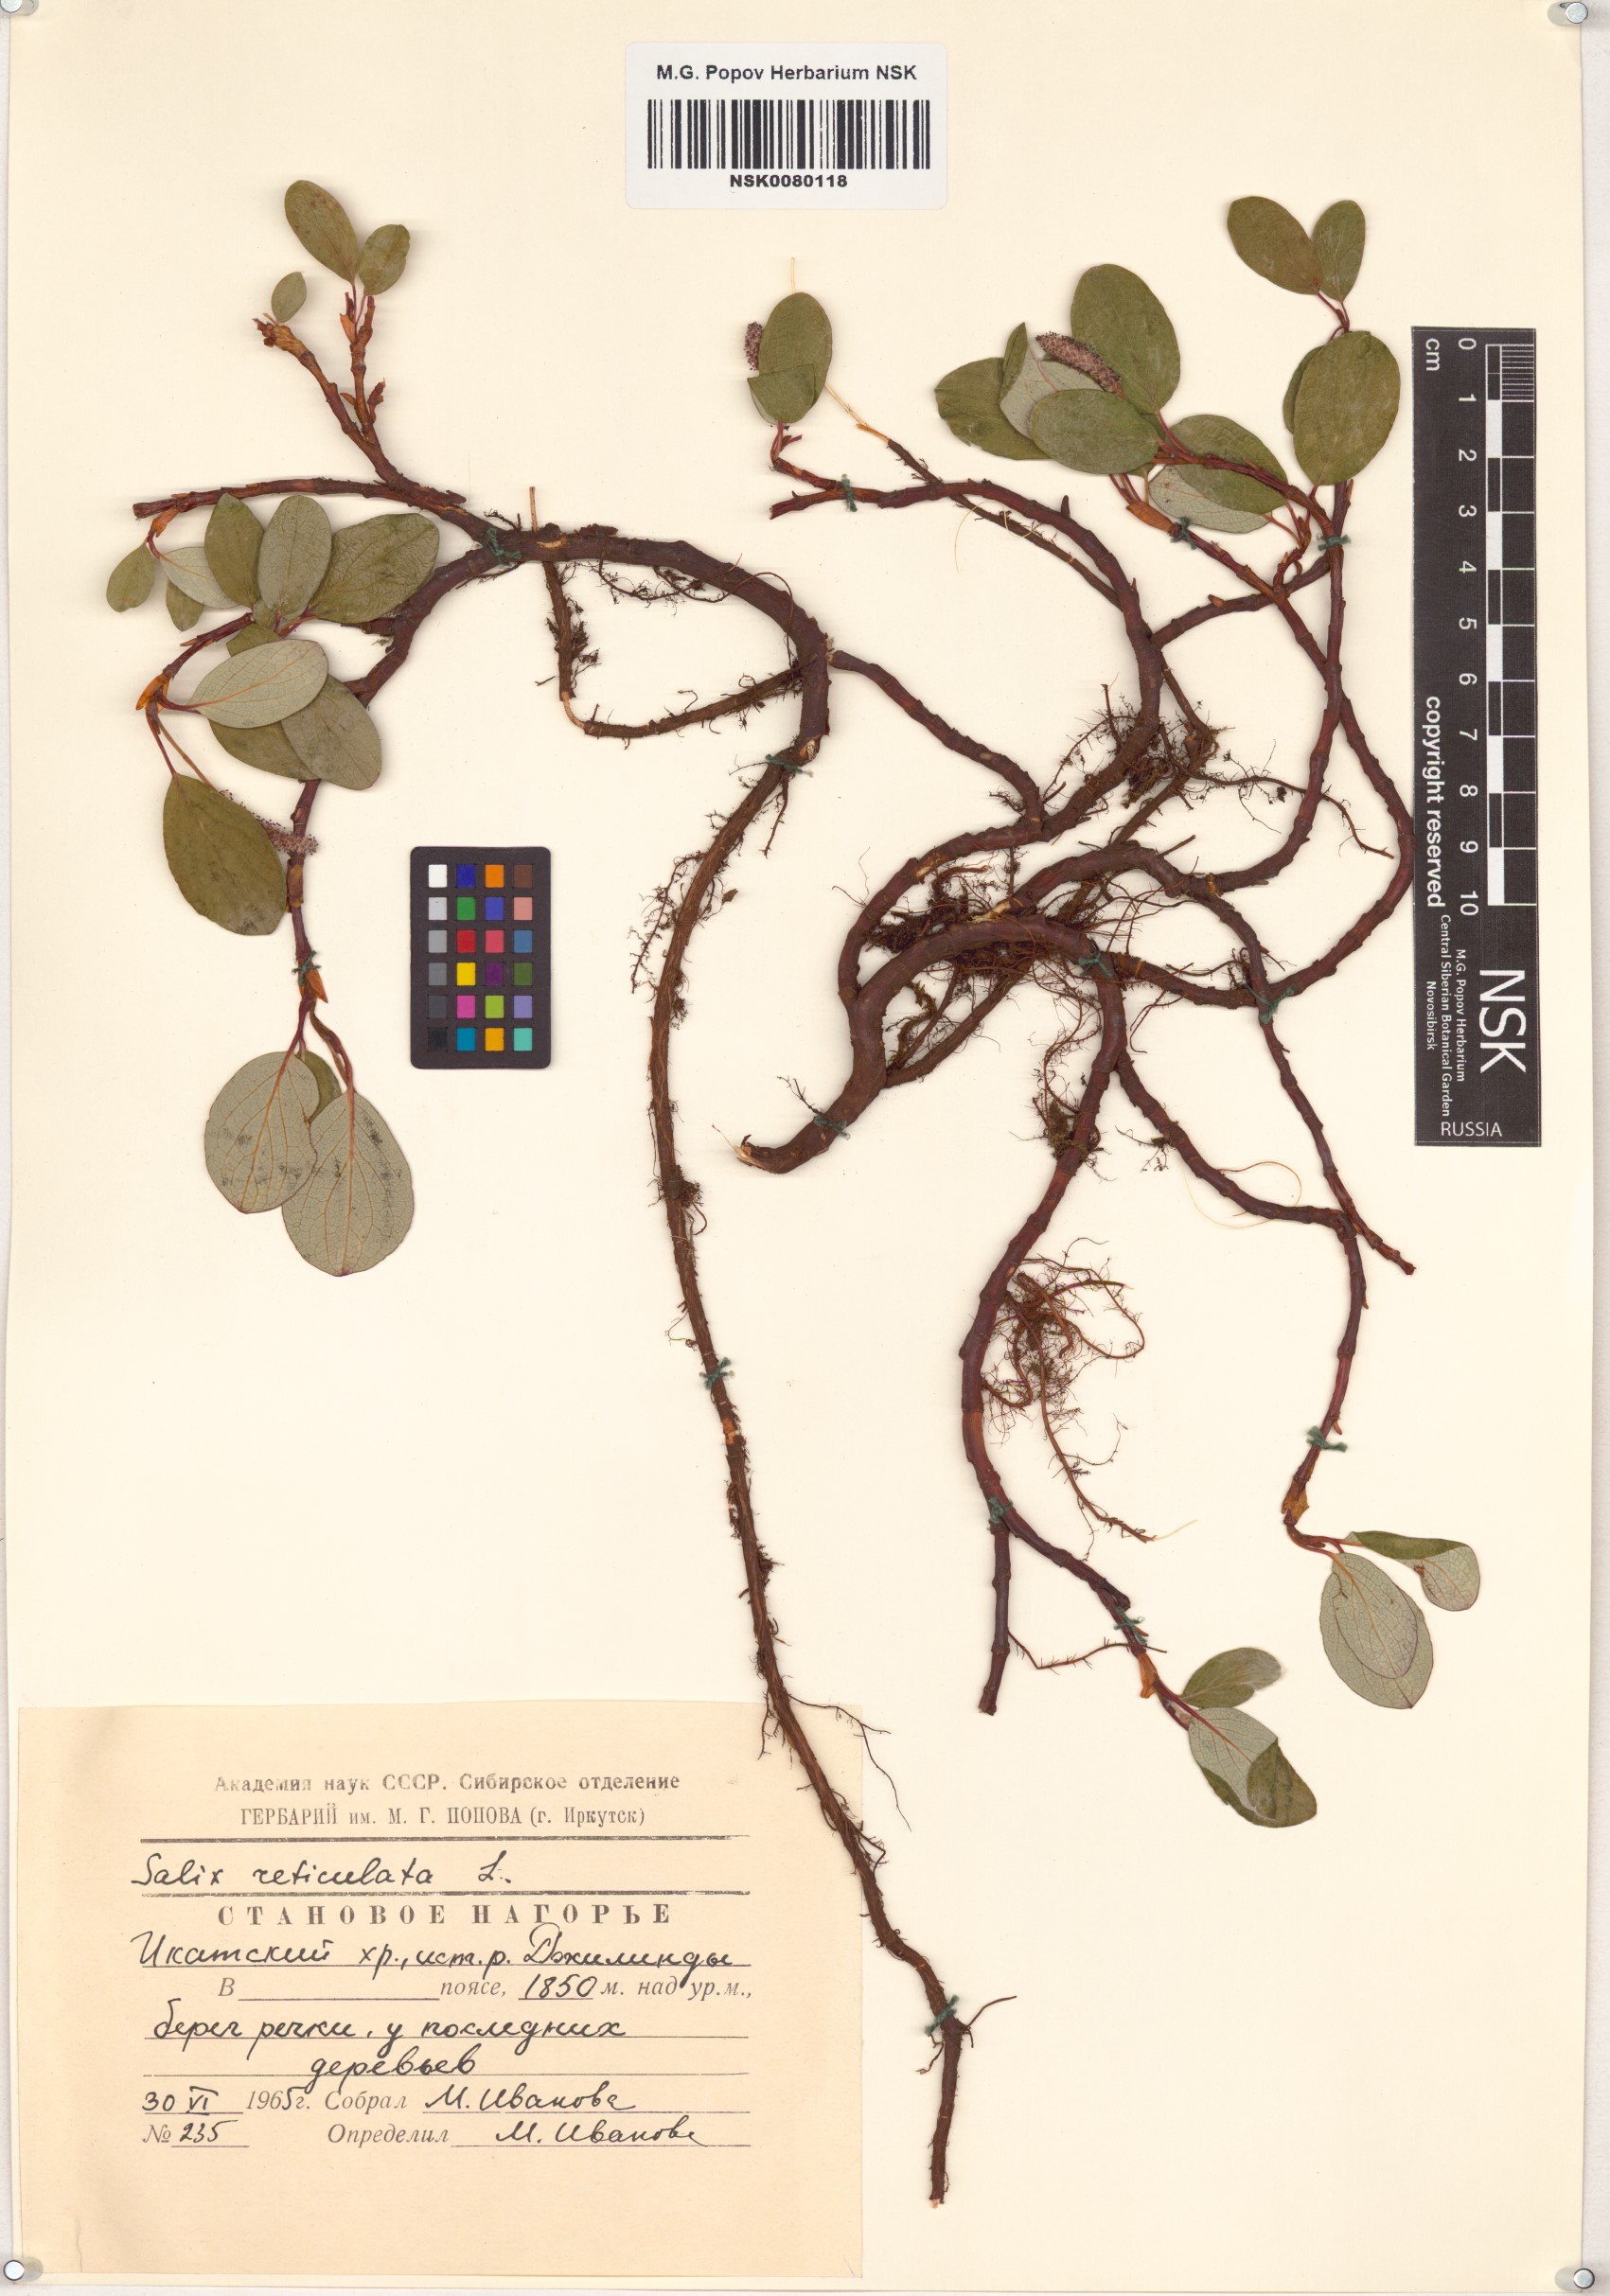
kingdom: Plantae
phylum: Tracheophyta
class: Magnoliopsida
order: Malpighiales
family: Salicaceae
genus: Salix
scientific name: Salix reticulata
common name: Net-leaved willow
